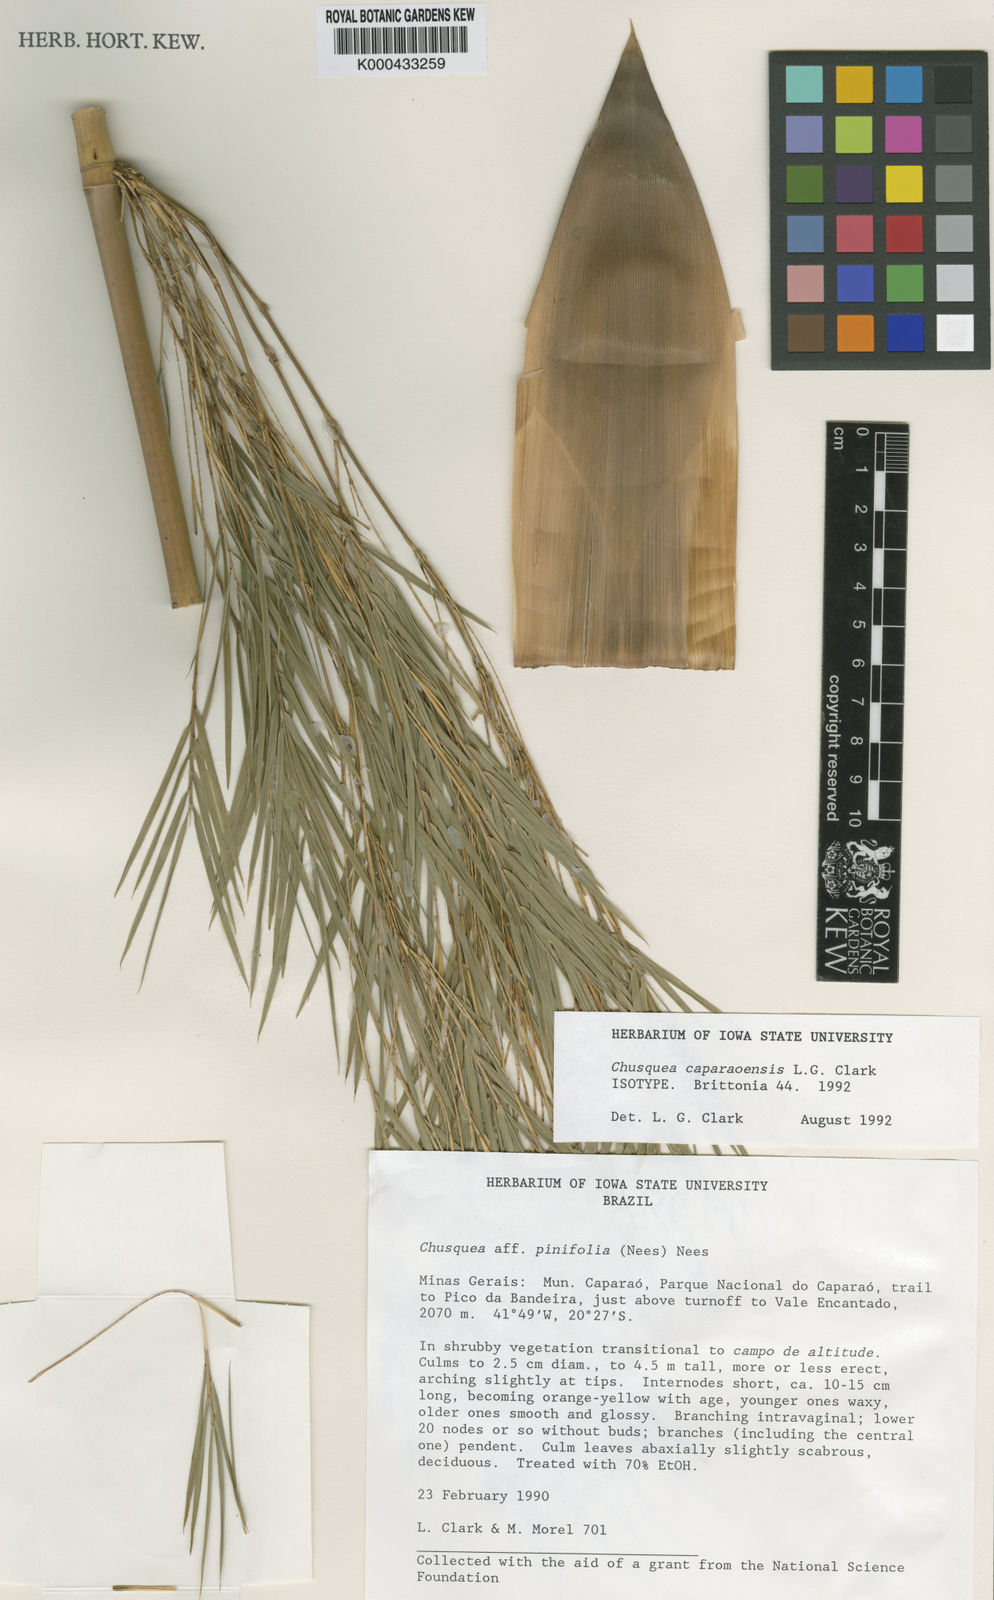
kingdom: Plantae
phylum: Tracheophyta
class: Liliopsida
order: Poales
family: Poaceae
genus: Chusquea
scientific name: Chusquea caparaoensis
